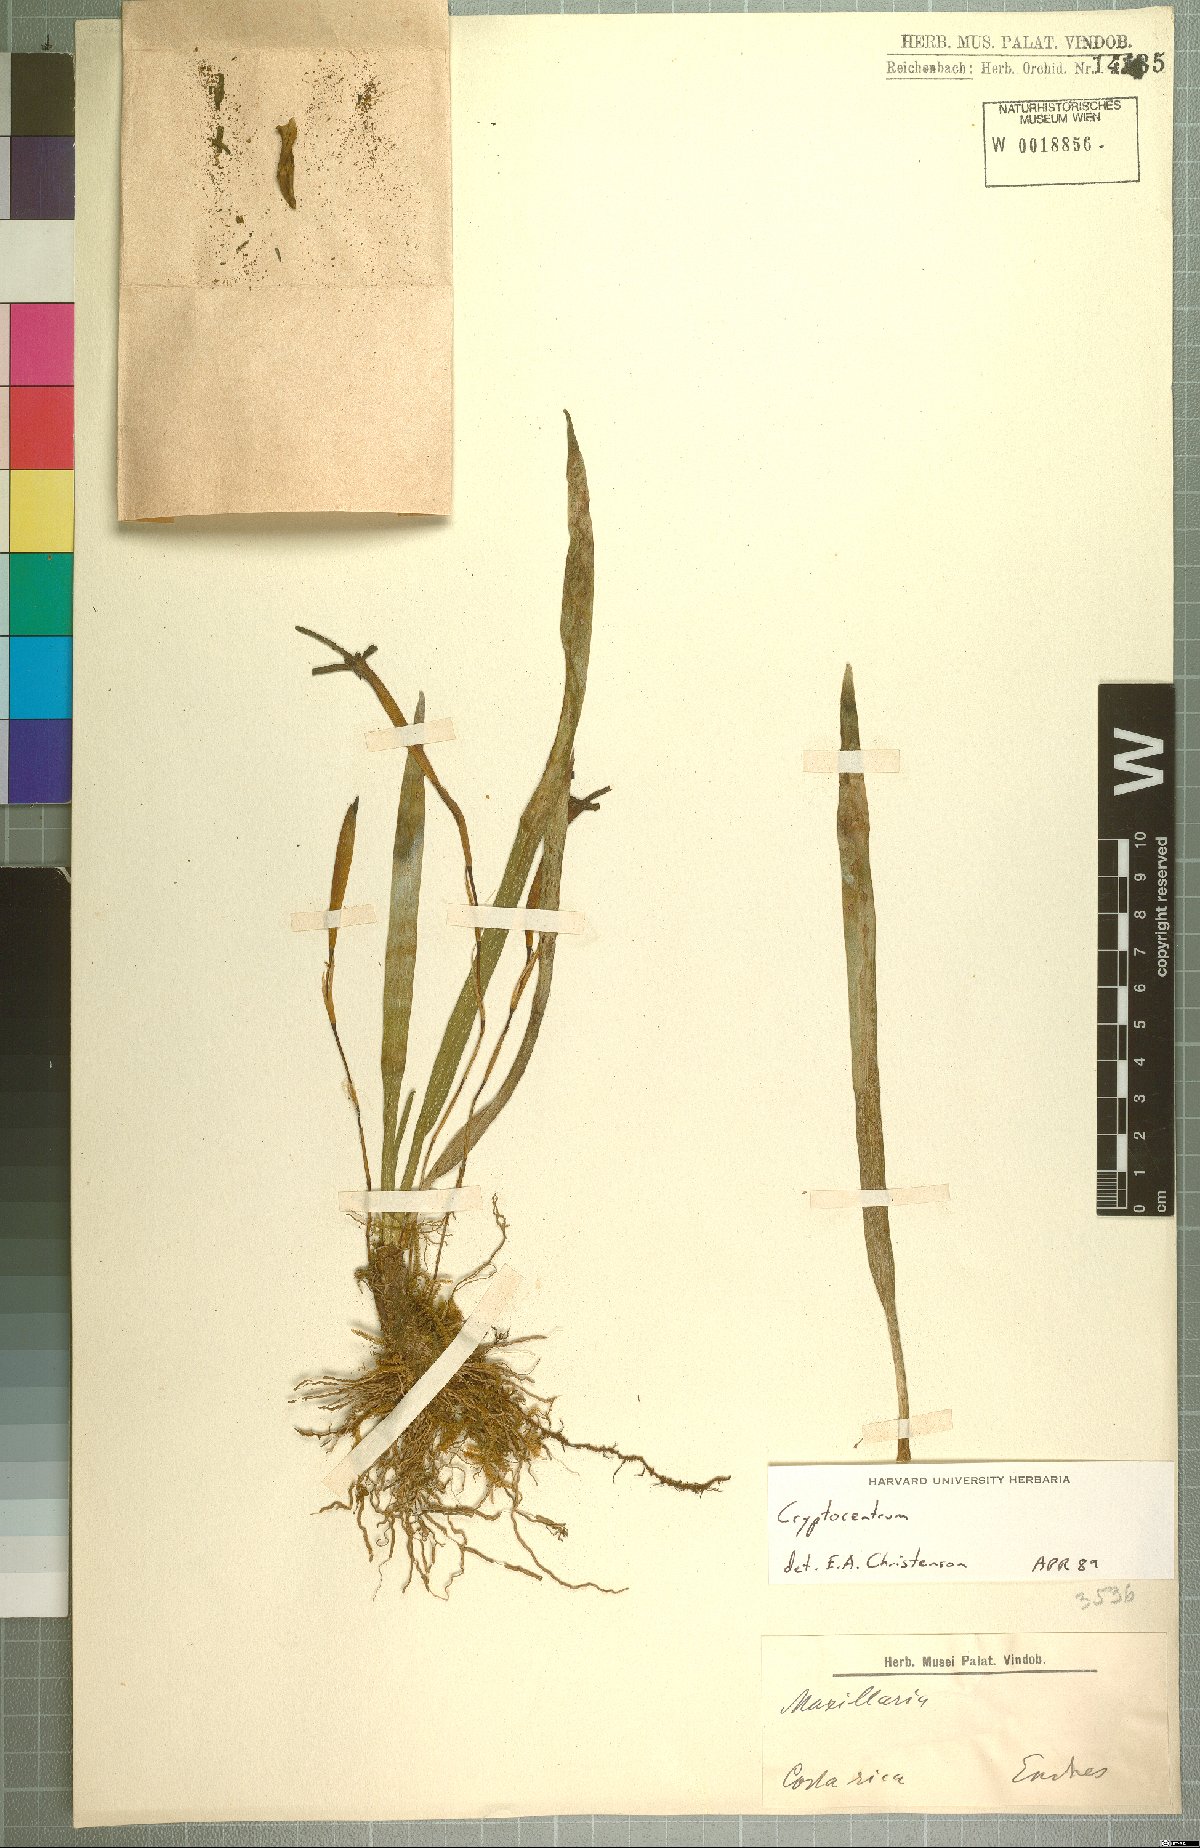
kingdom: Plantae
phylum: Tracheophyta
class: Liliopsida
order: Asparagales
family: Orchidaceae
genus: Maxillaria
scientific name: Maxillaria jacquelineana
